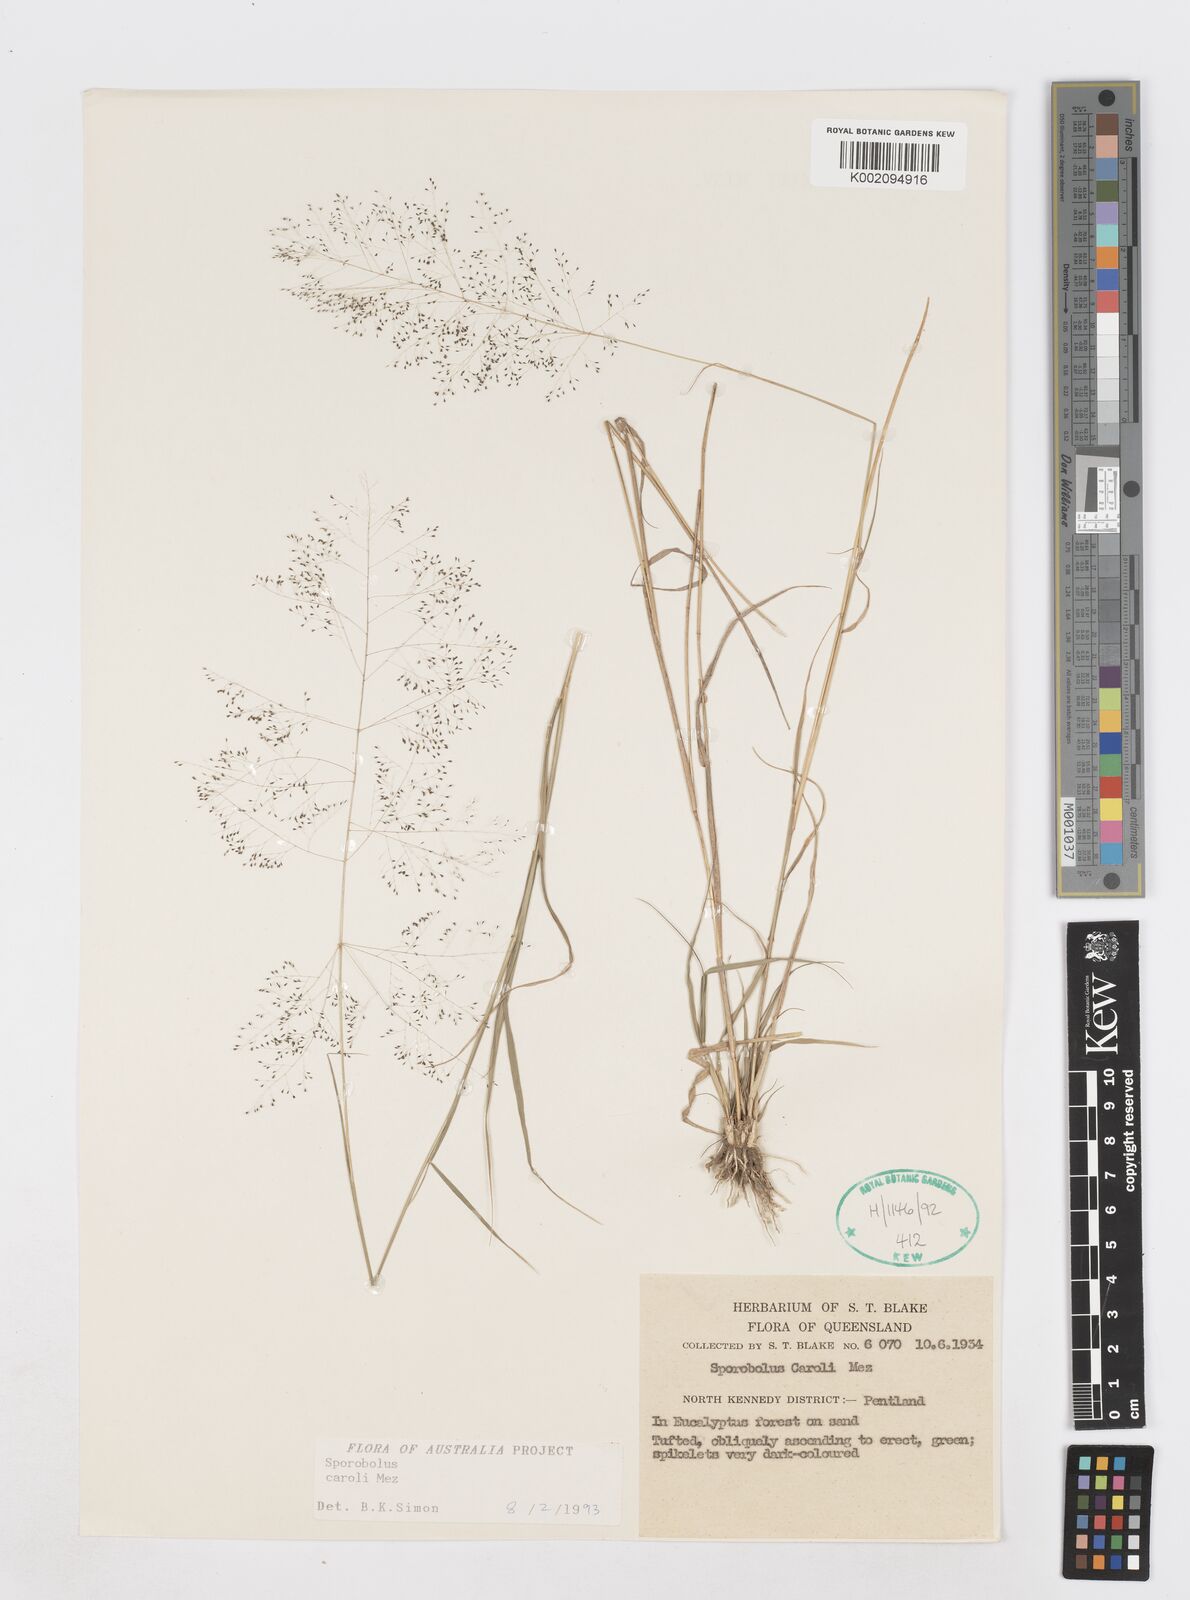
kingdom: Plantae
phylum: Tracheophyta
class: Liliopsida
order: Poales
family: Poaceae
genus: Sporobolus
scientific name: Sporobolus caroli
